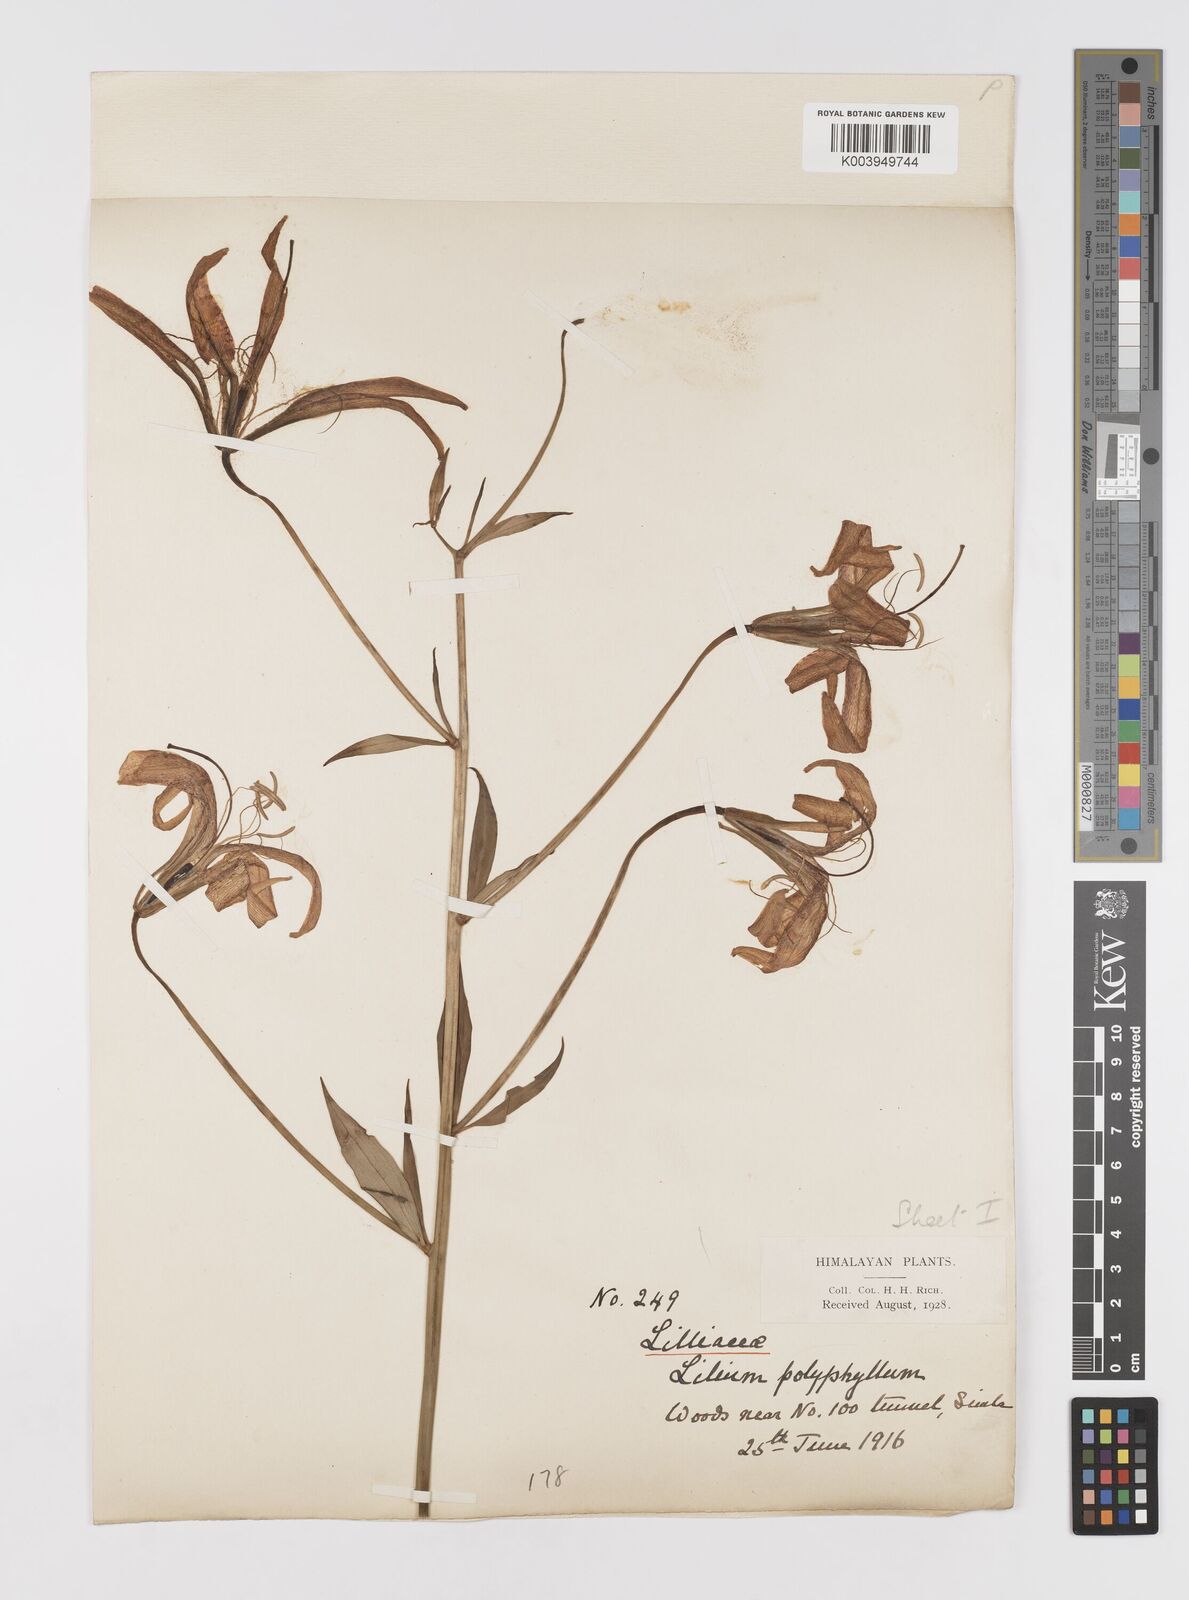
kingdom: Plantae
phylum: Tracheophyta
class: Liliopsida
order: Liliales
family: Liliaceae
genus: Lilium
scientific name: Lilium polyphyllum
